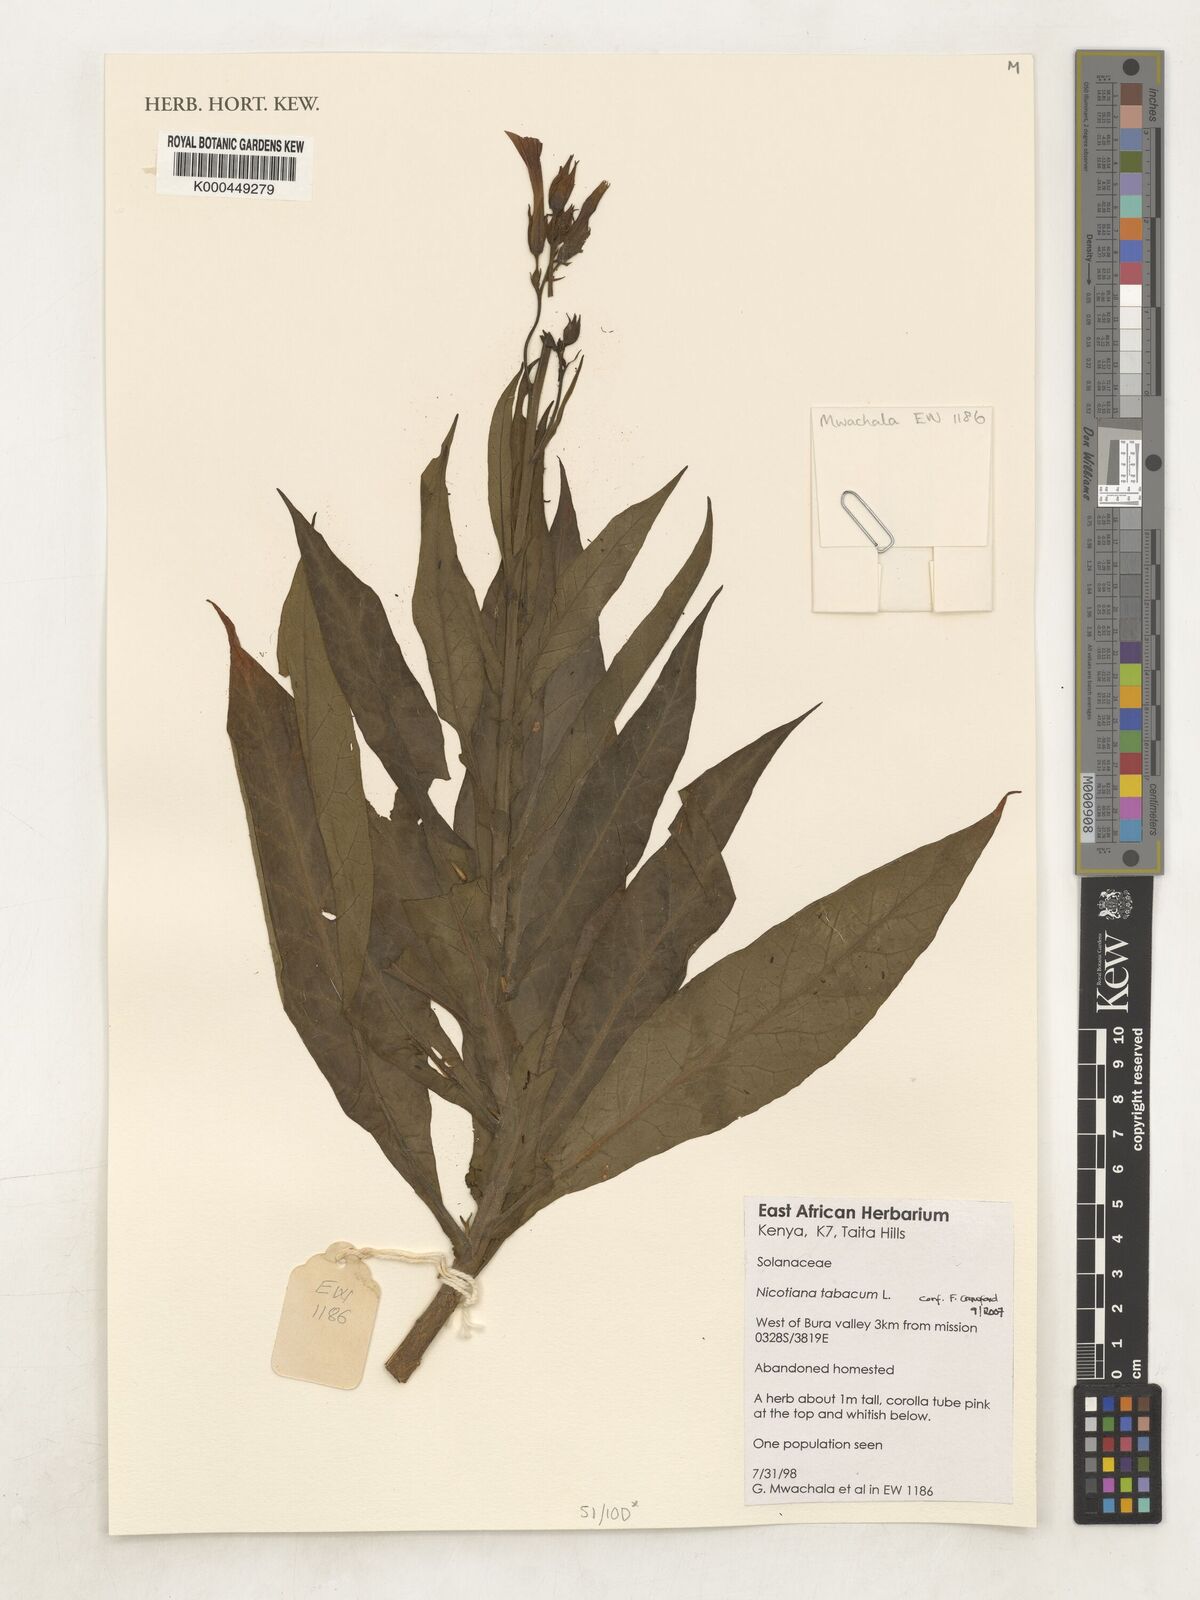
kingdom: Plantae
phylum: Tracheophyta
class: Magnoliopsida
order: Solanales
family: Solanaceae
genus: Nicotiana
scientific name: Nicotiana tabacum
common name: Tobacco
